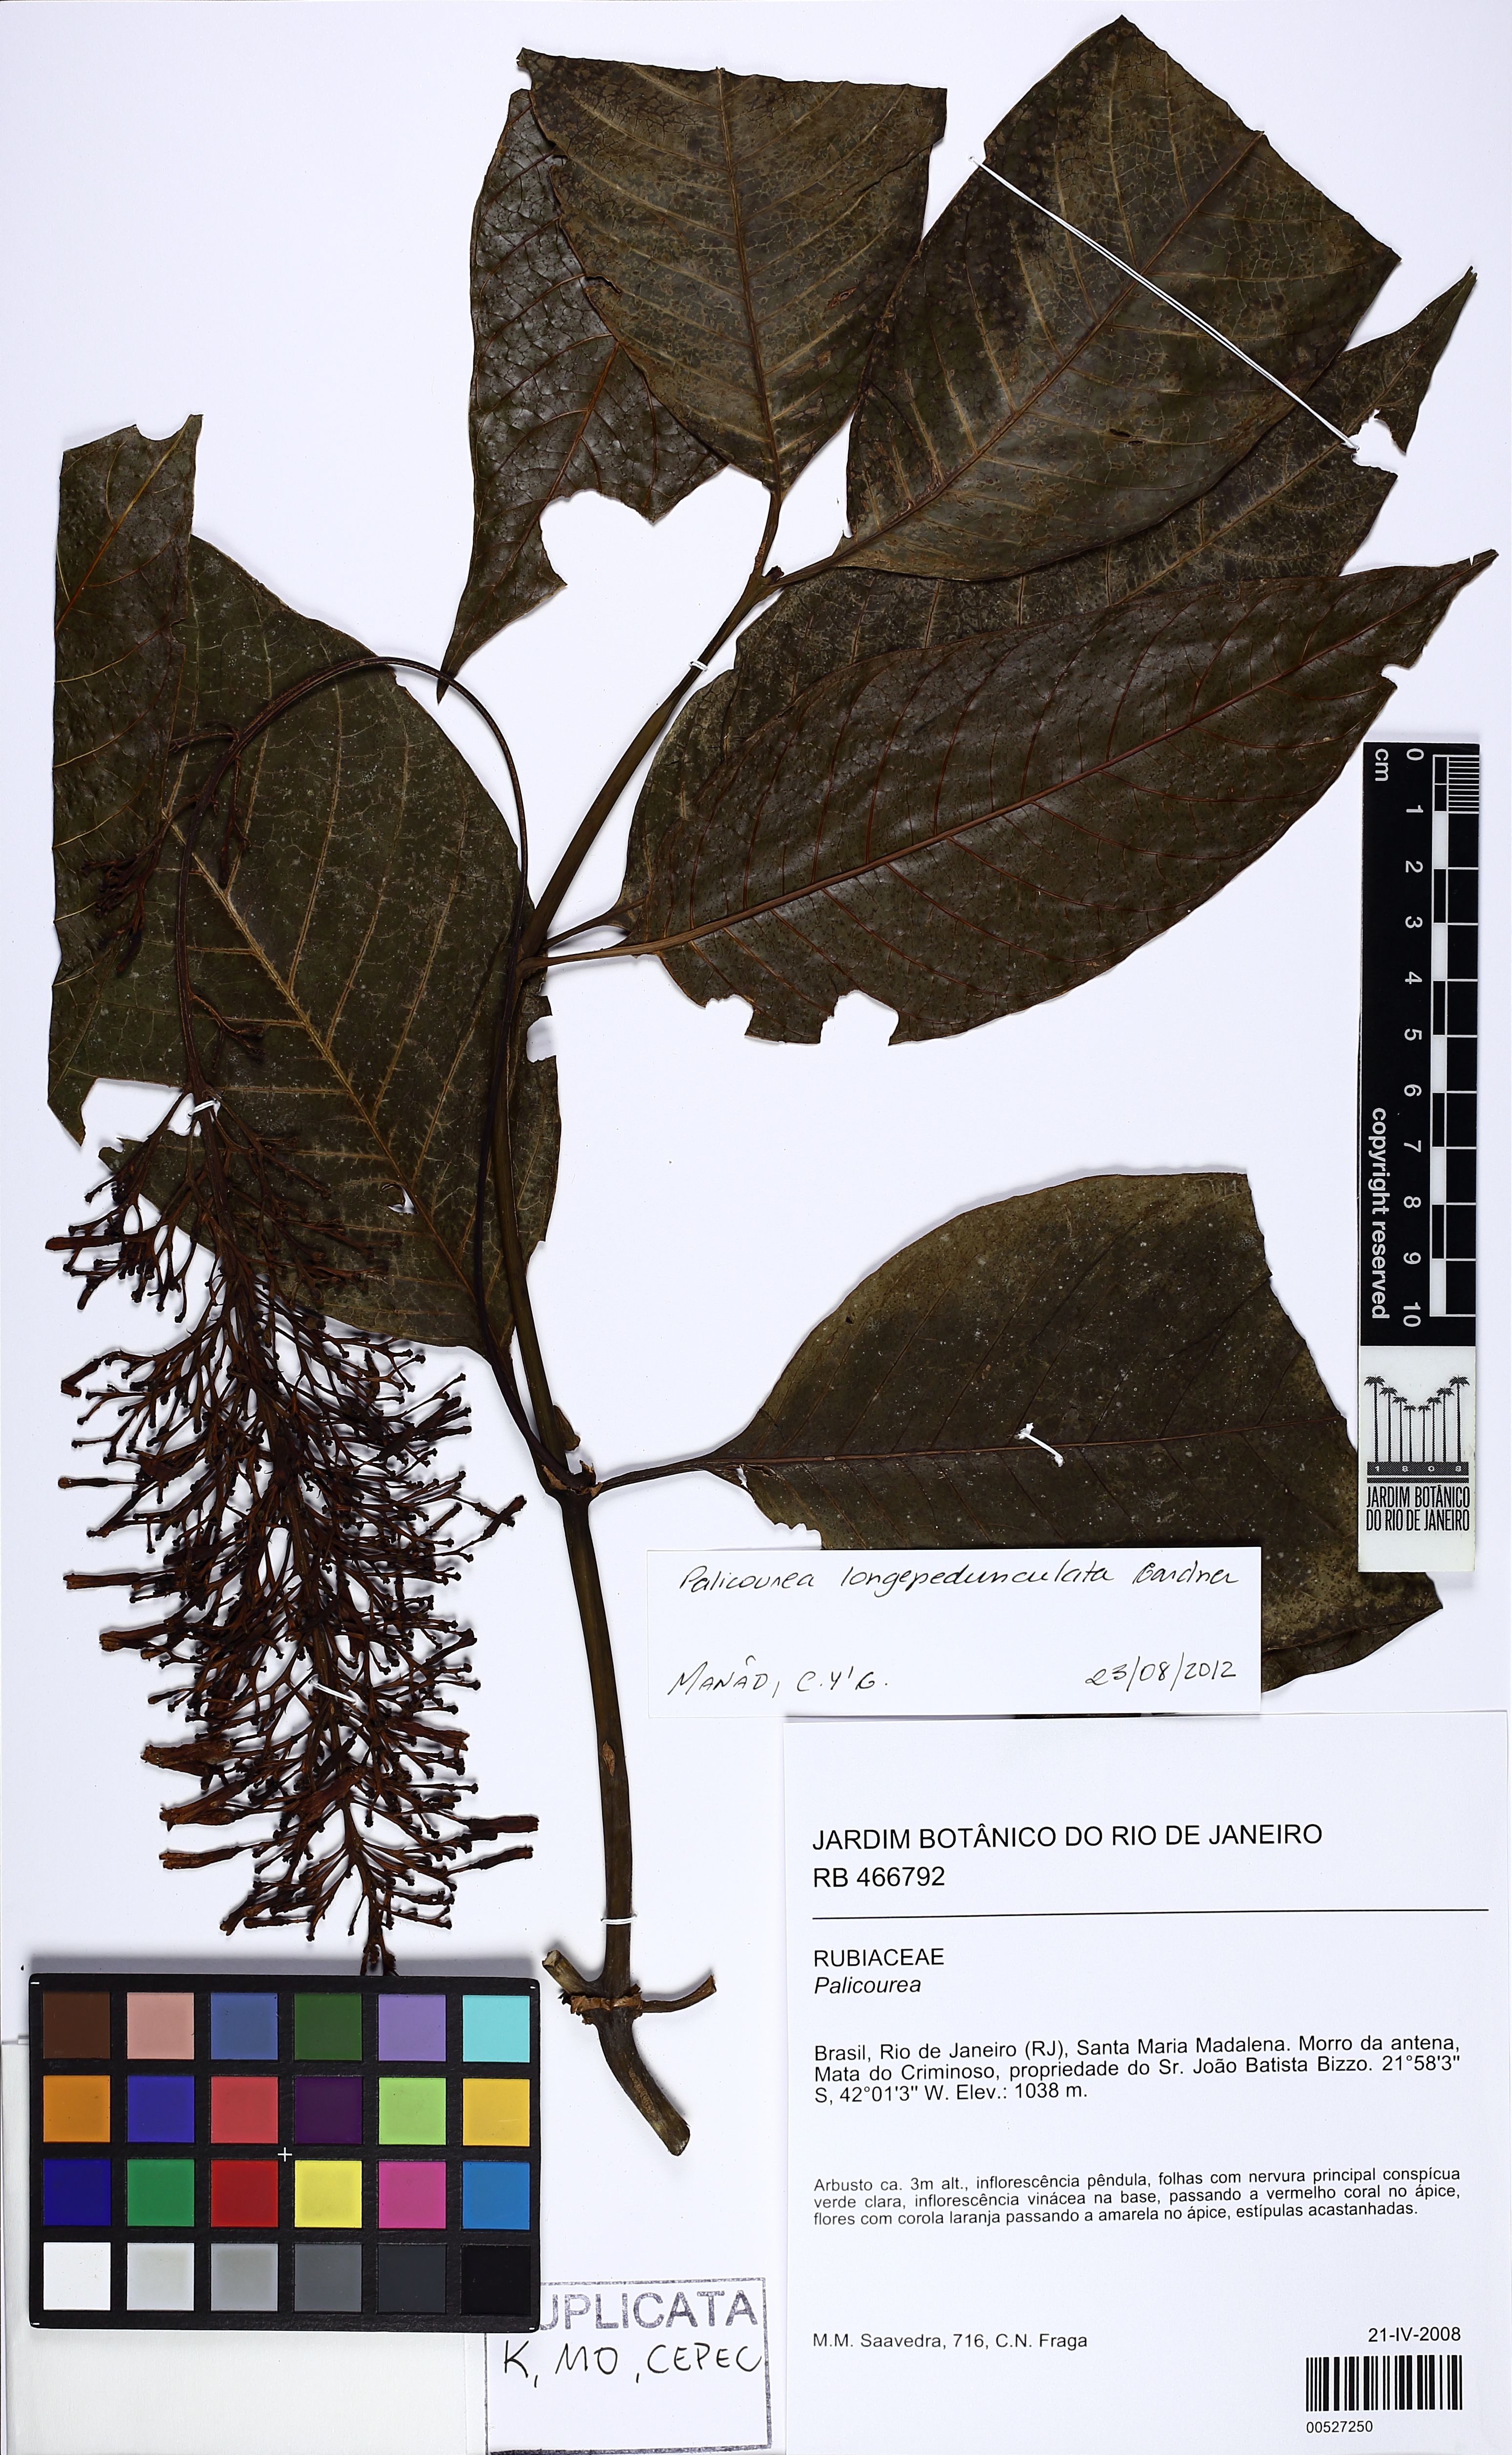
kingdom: Plantae
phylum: Tracheophyta
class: Magnoliopsida
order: Gentianales
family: Rubiaceae
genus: Palicourea
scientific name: Palicourea longipedunculata
